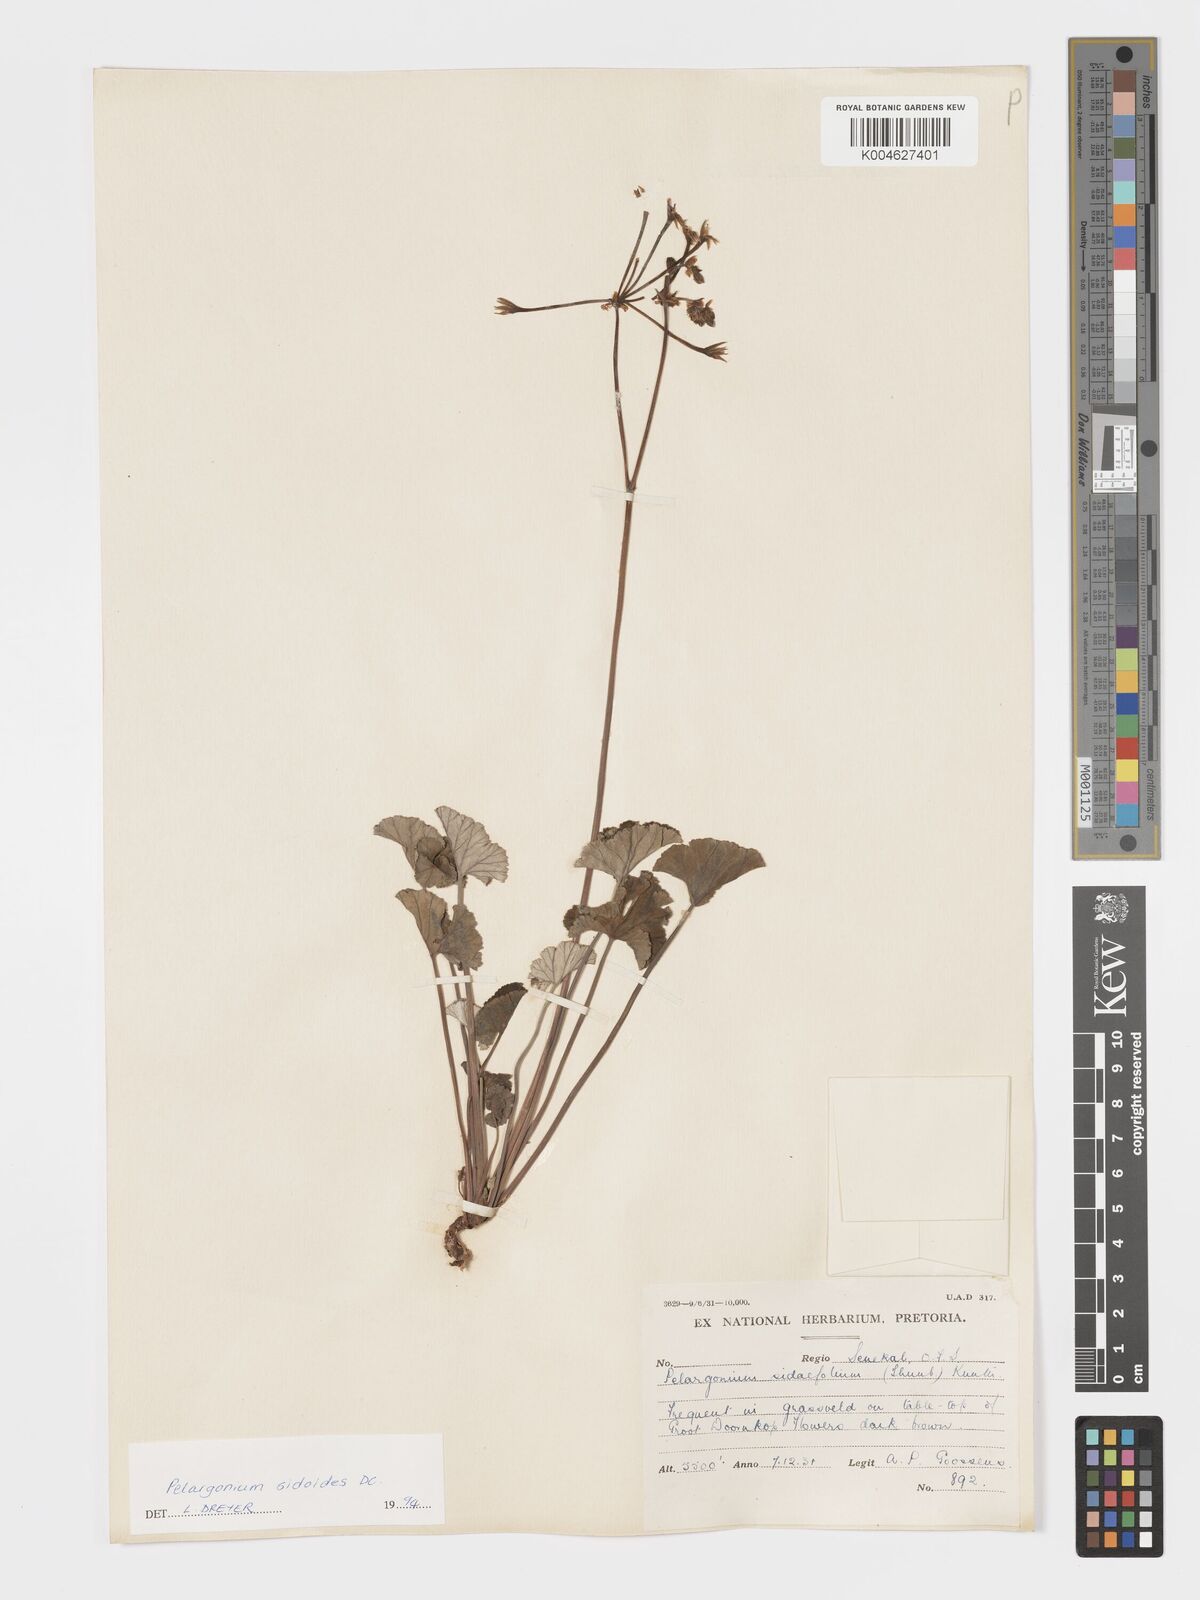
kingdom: Plantae
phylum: Tracheophyta
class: Magnoliopsida
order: Geraniales
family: Geraniaceae
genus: Pelargonium
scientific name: Pelargonium sidoides
